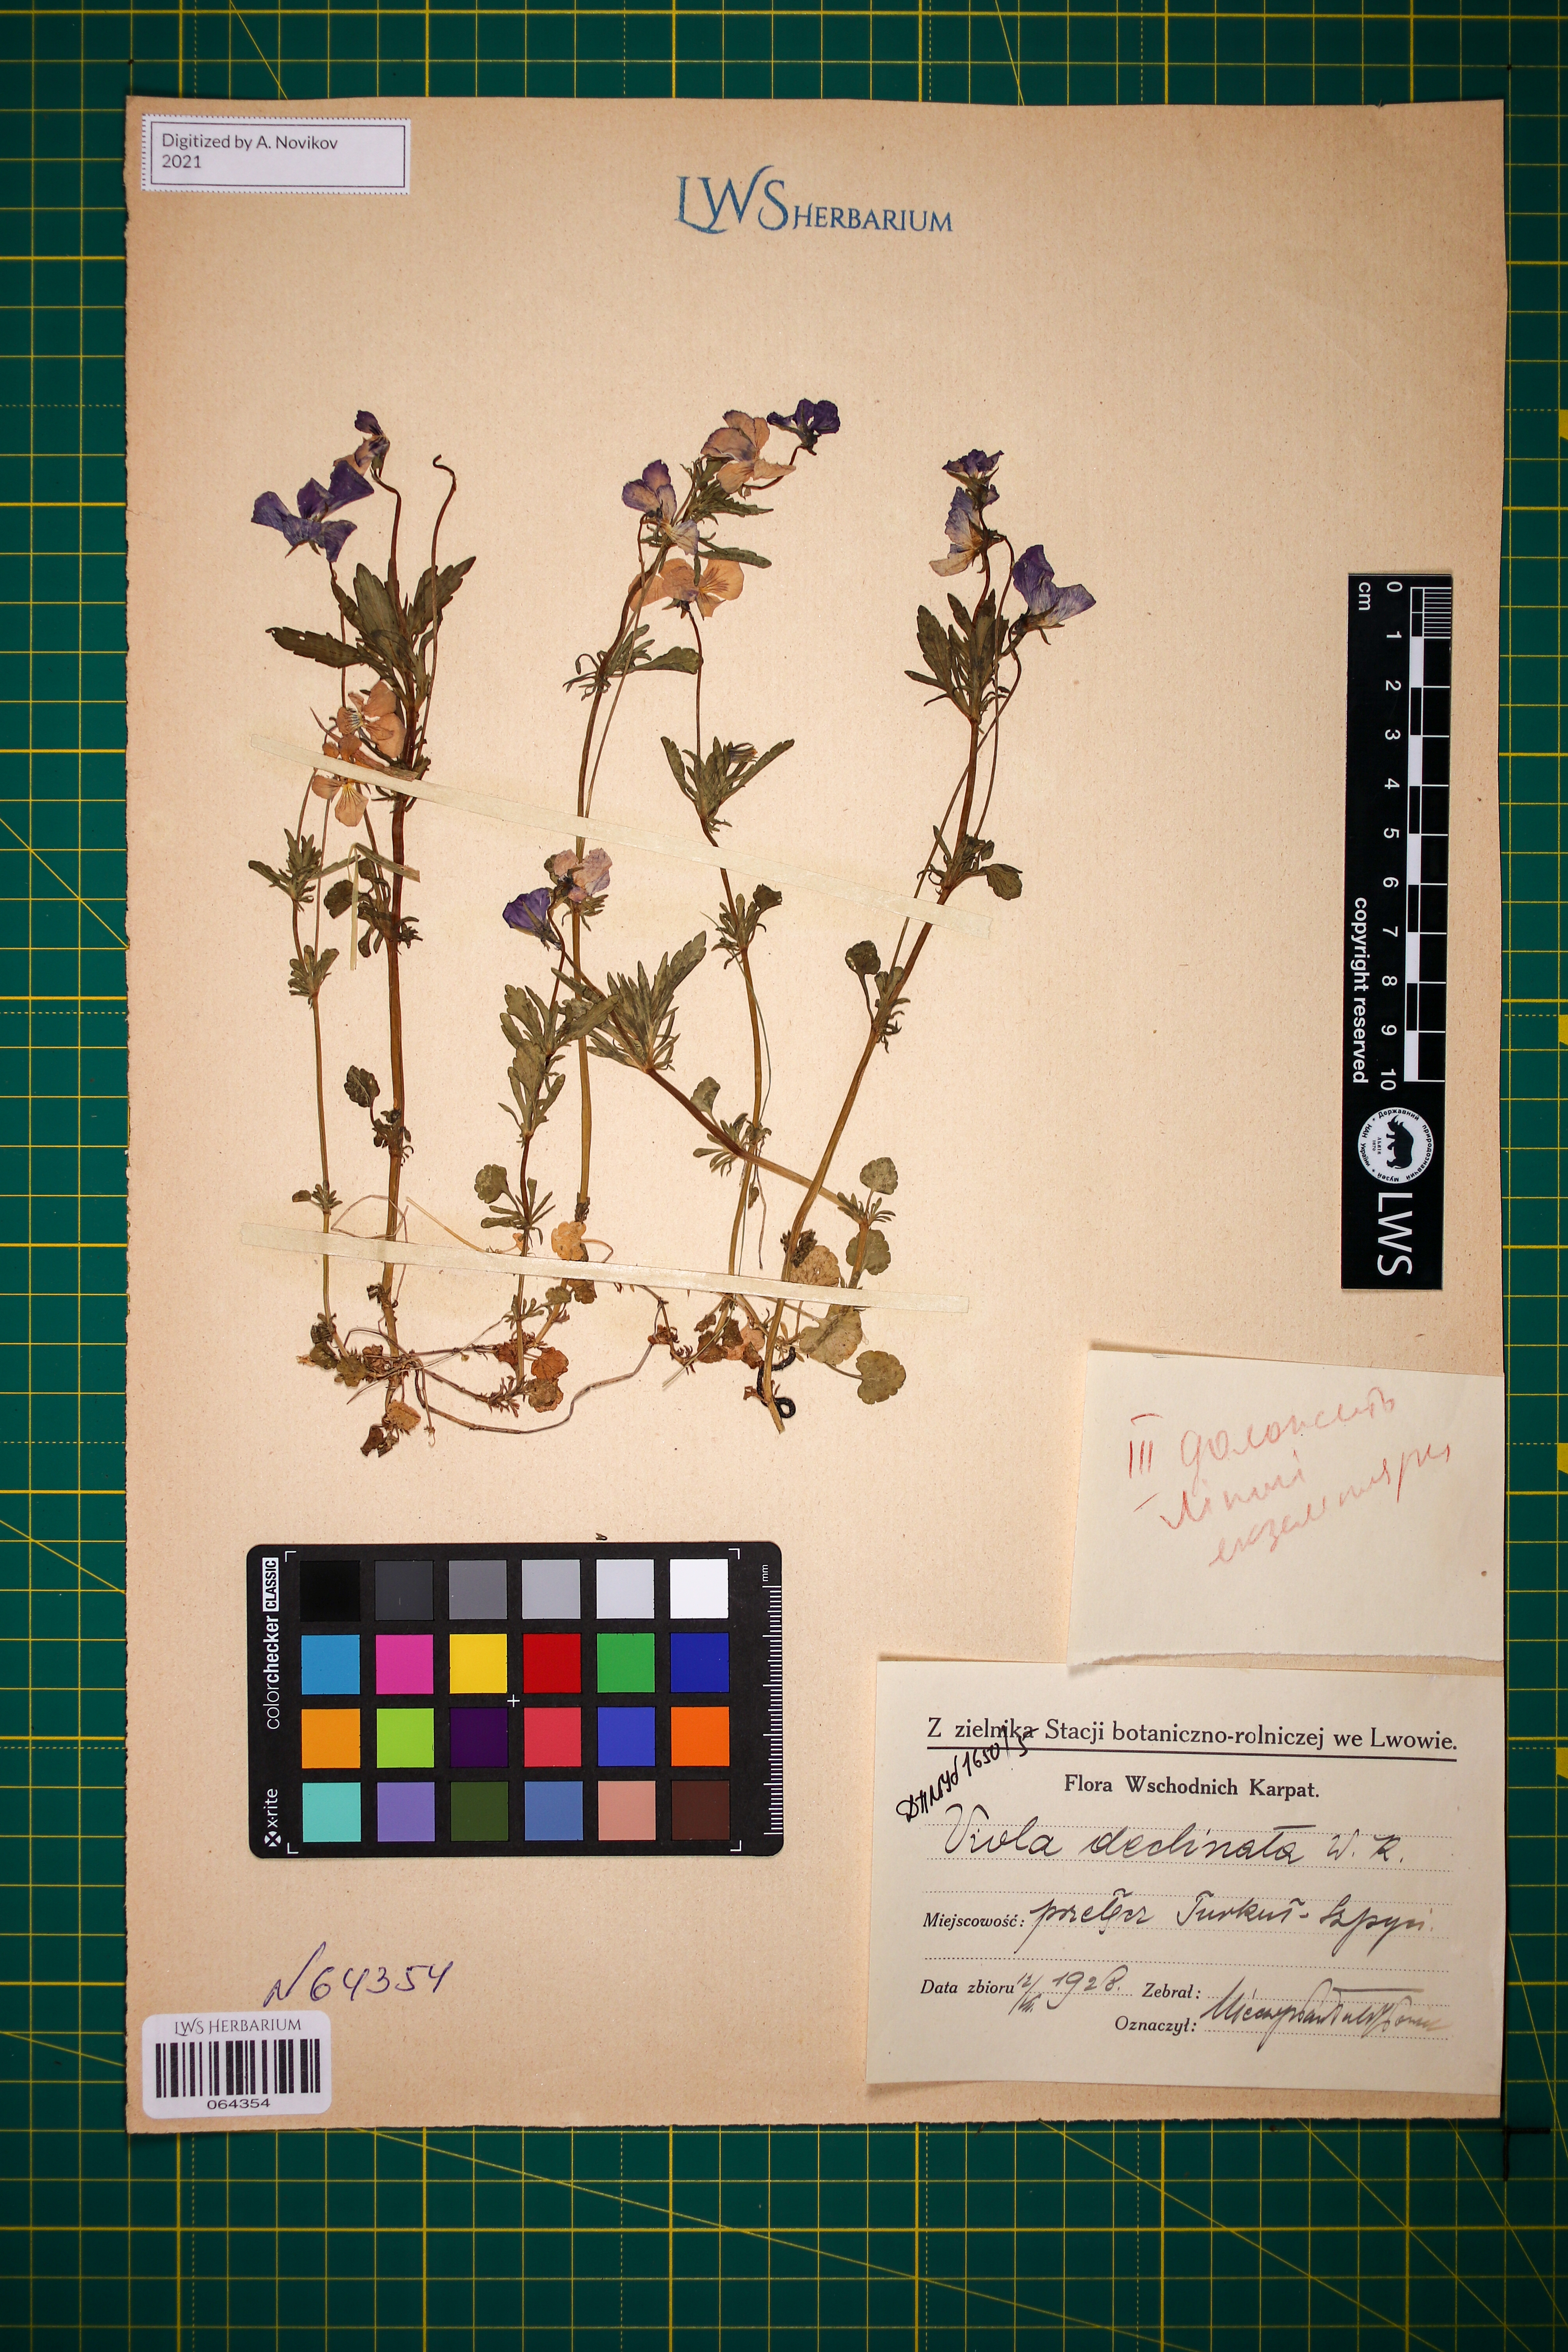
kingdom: Plantae
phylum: Tracheophyta
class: Magnoliopsida
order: Malpighiales
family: Violaceae
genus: Viola
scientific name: Viola declinata
